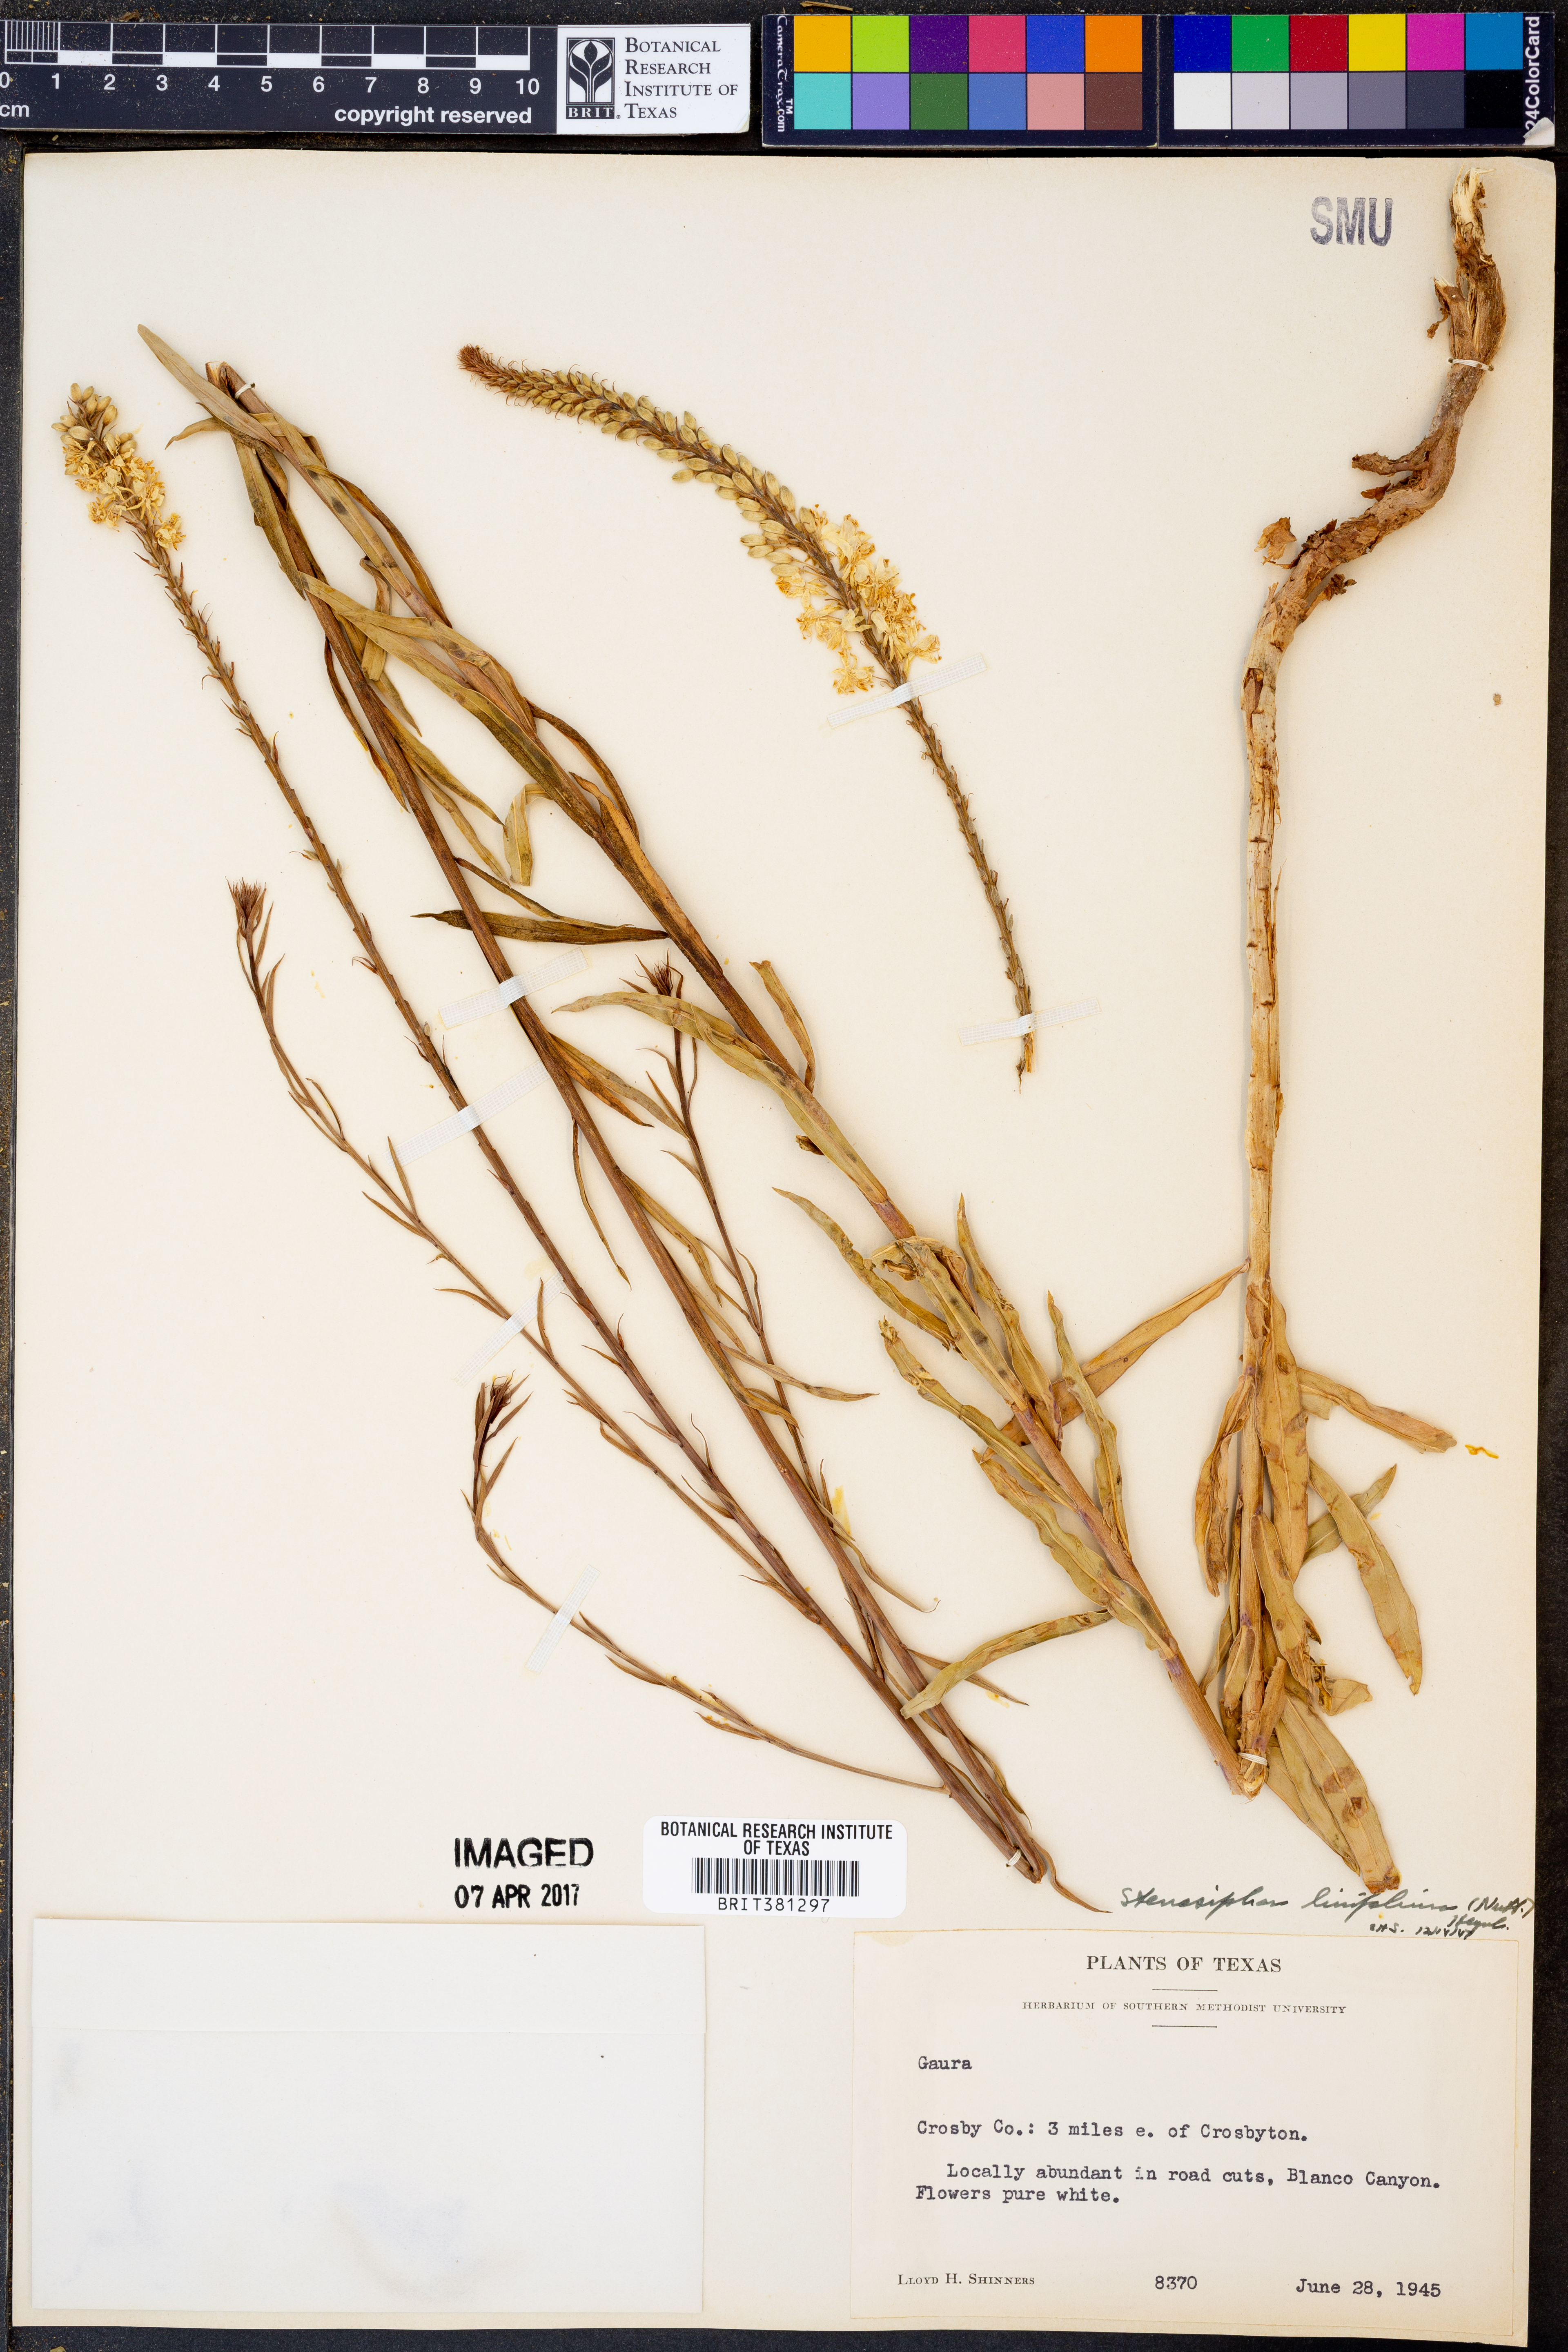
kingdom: Plantae
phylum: Tracheophyta
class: Magnoliopsida
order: Myrtales
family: Onagraceae
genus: Oenothera
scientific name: Oenothera glaucifolia
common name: False gaura
